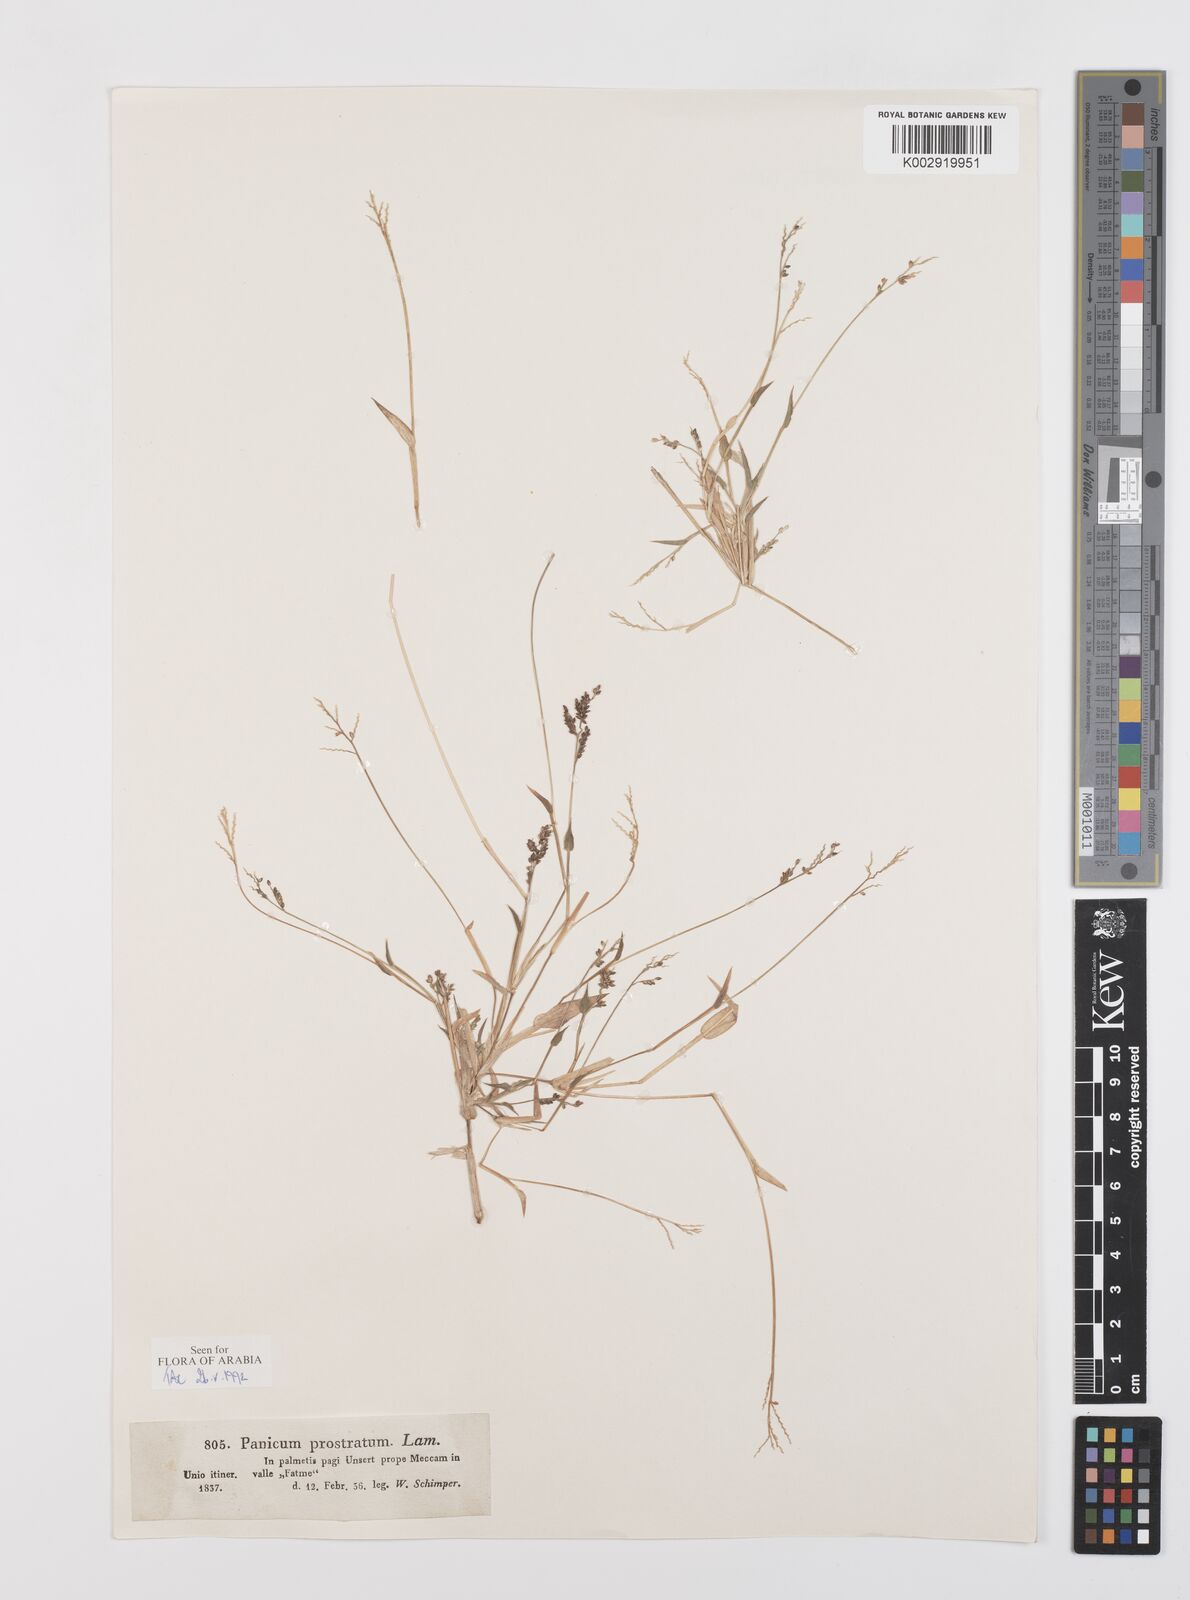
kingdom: Plantae
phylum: Tracheophyta
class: Liliopsida
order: Poales
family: Poaceae
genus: Urochloa
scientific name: Urochloa reptans
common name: Sprawling signalgrass
